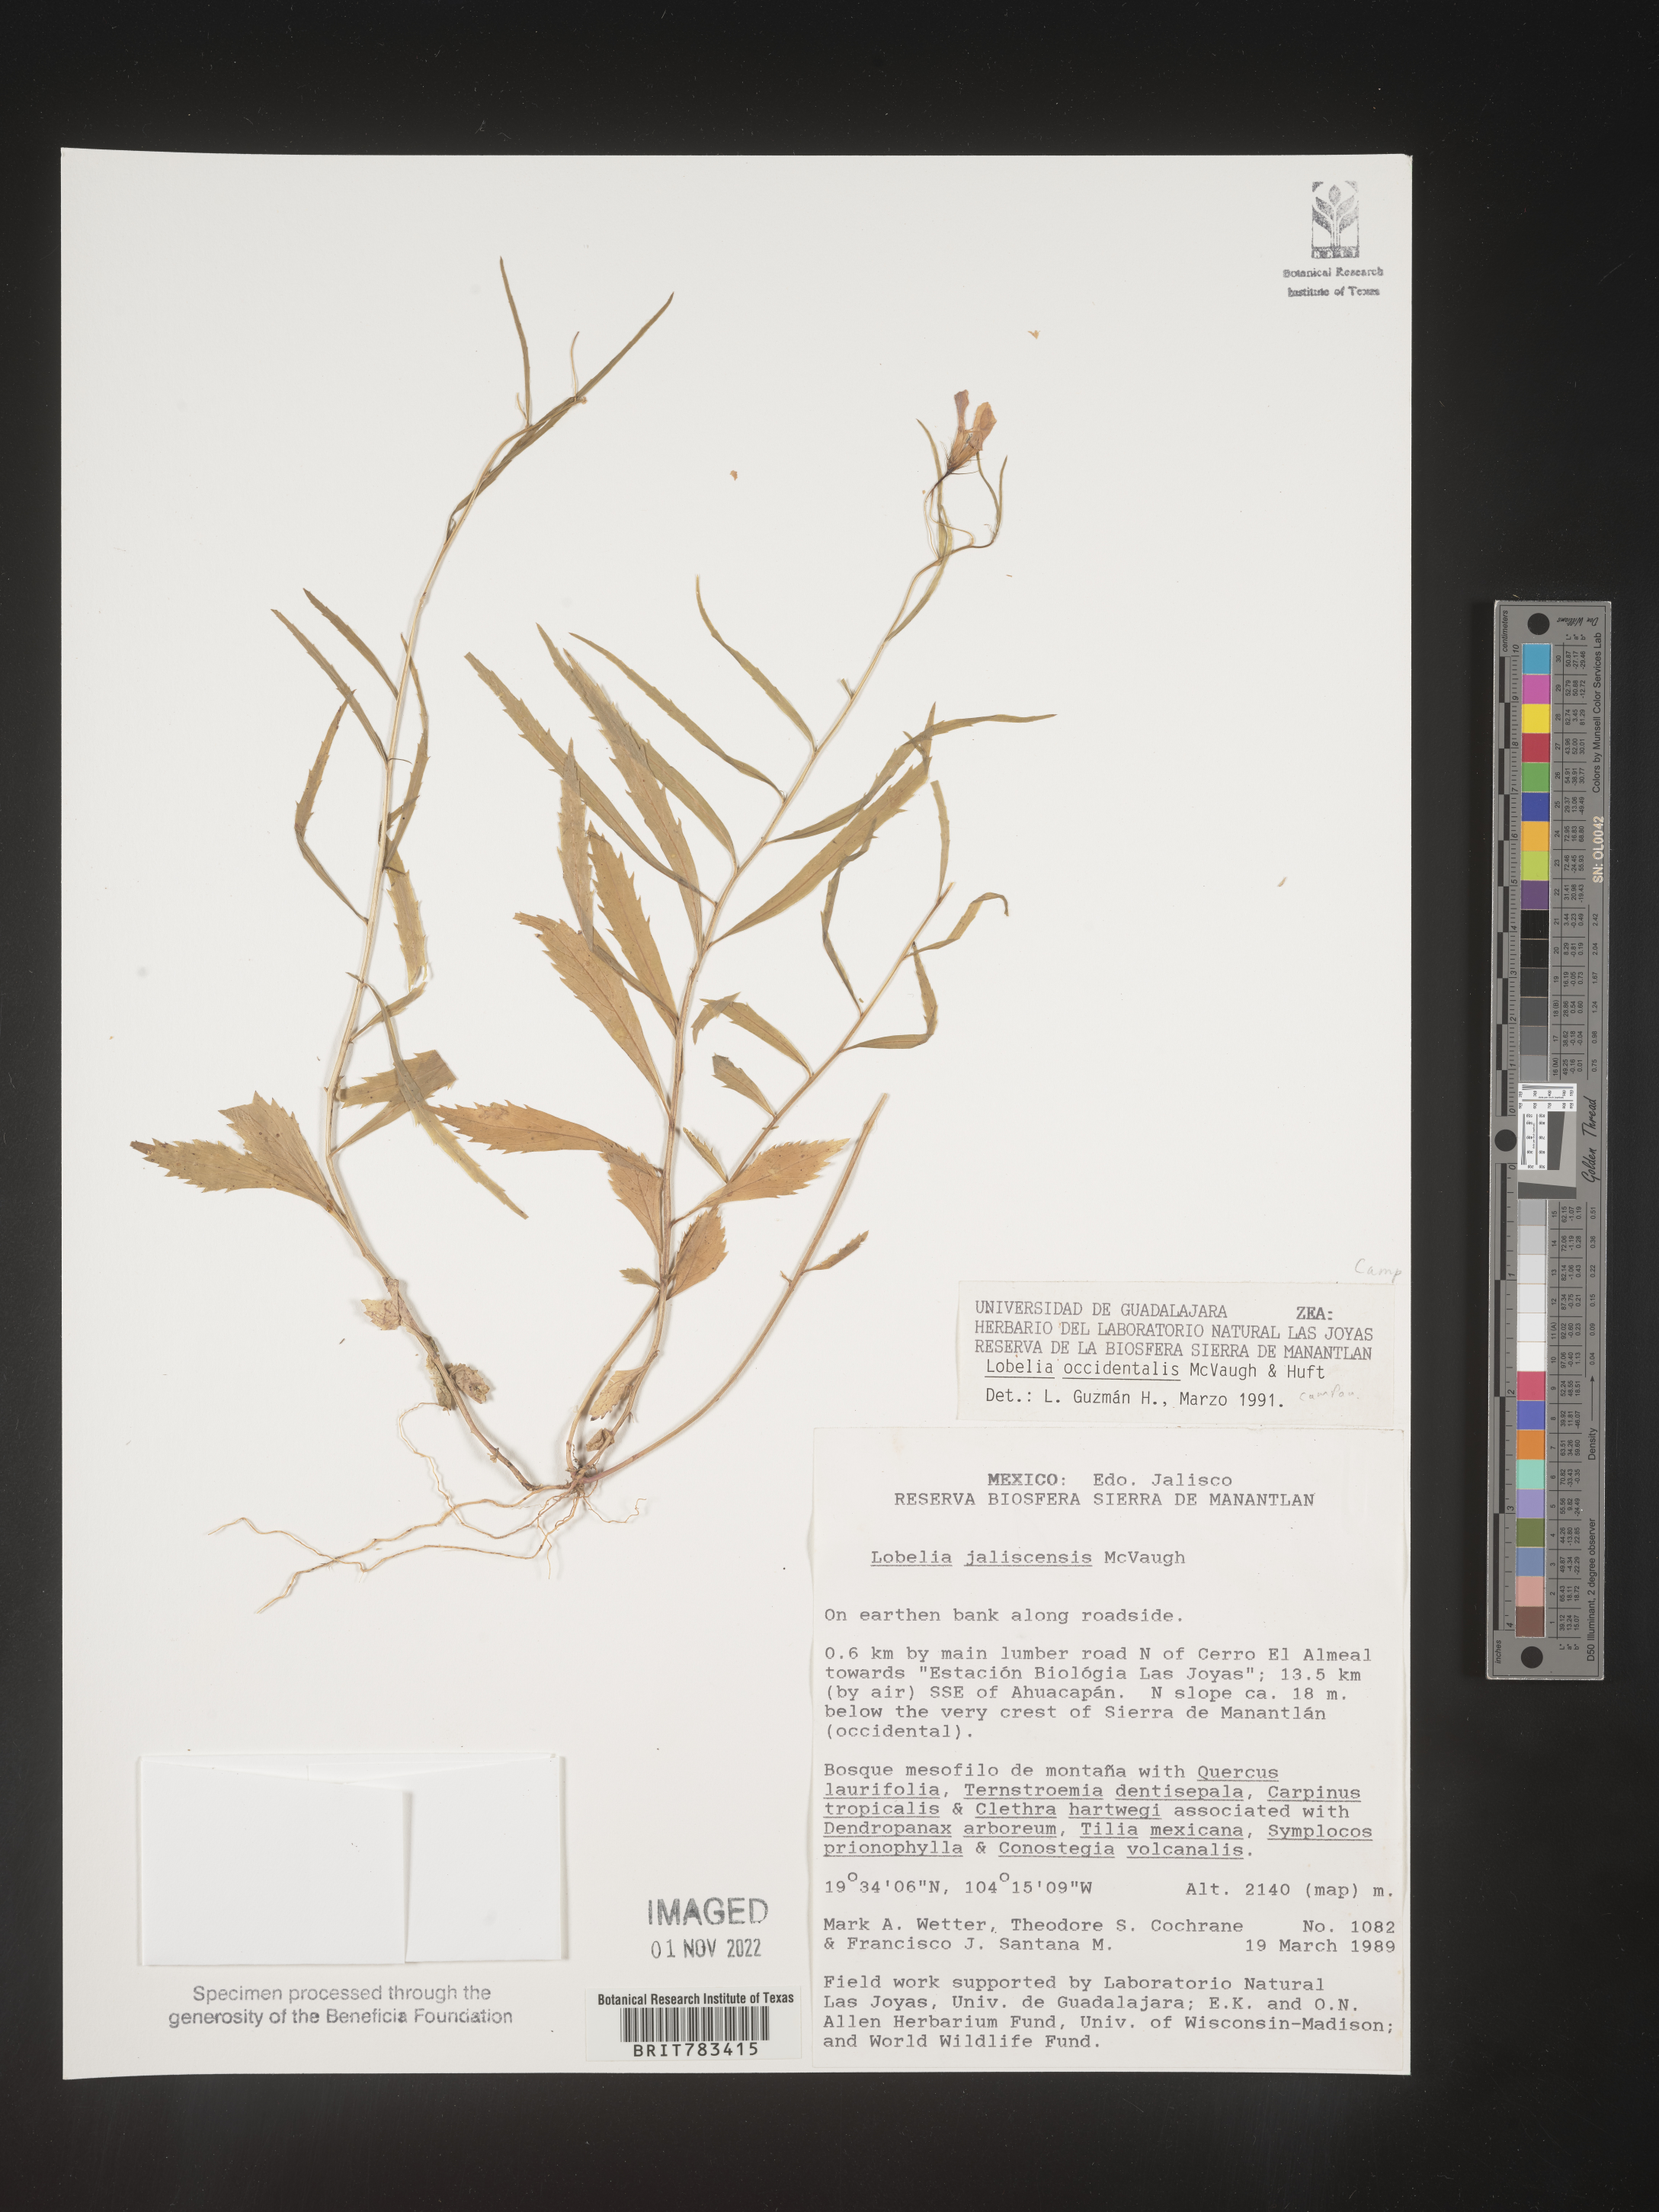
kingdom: Plantae
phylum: Tracheophyta
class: Magnoliopsida
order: Asterales
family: Campanulaceae
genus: Lobelia
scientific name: Lobelia
